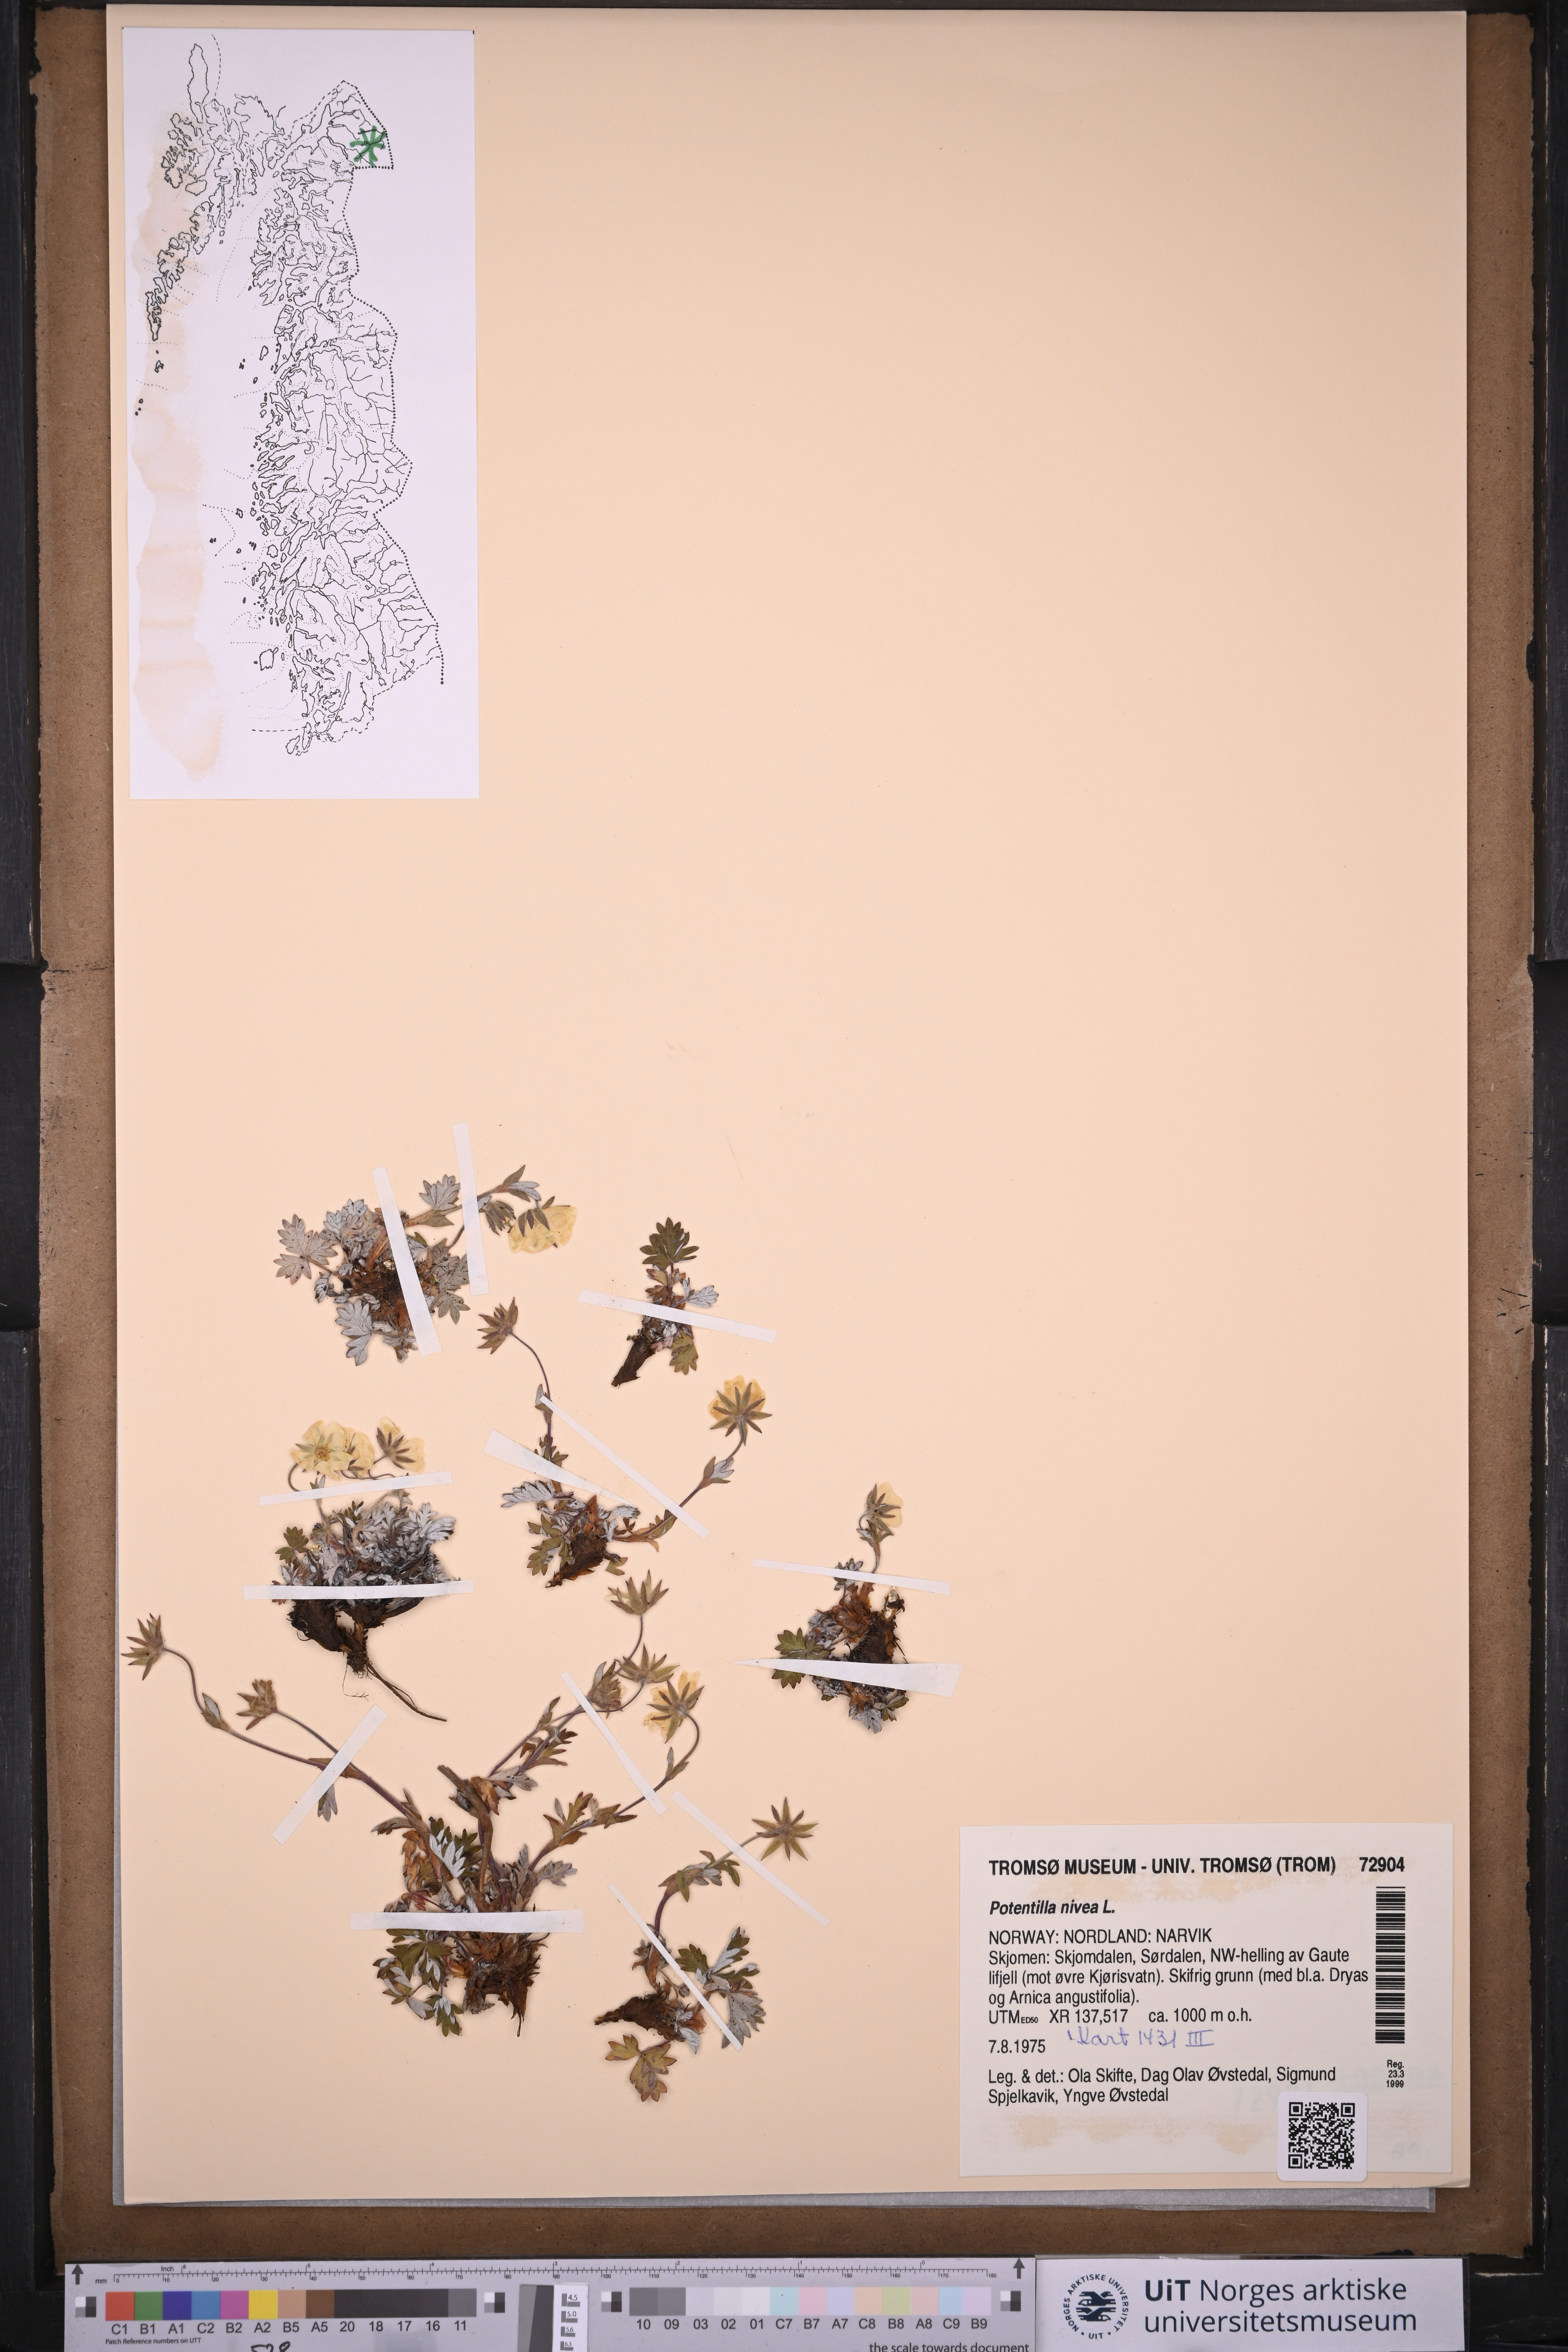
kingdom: Plantae
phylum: Tracheophyta
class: Magnoliopsida
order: Rosales
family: Rosaceae
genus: Potentilla
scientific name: Potentilla arenosa
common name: Bluff cinquefoil
